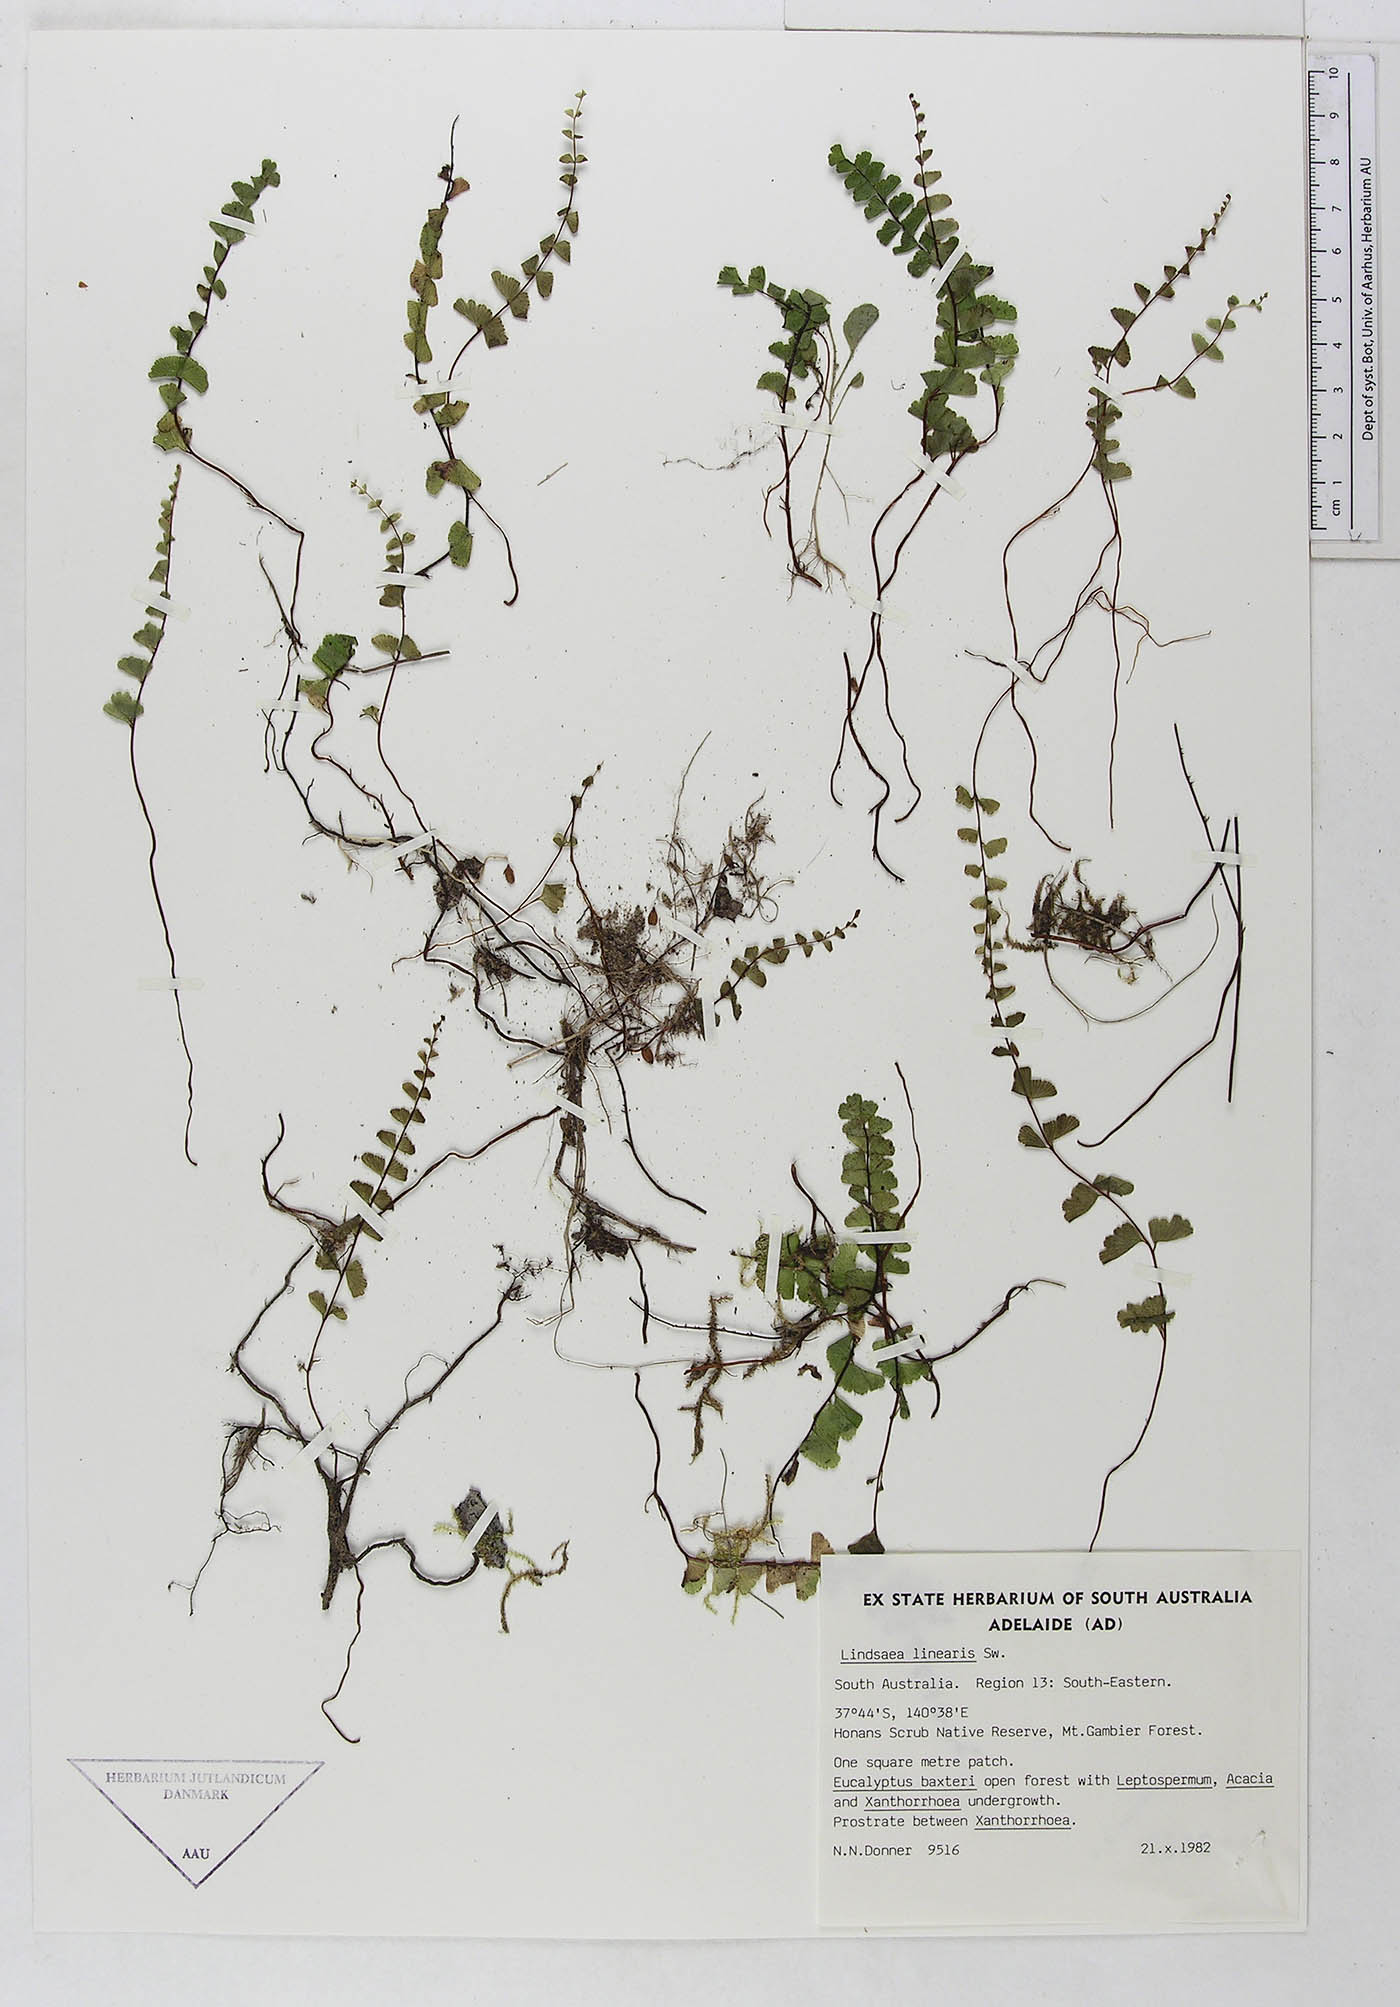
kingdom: Plantae
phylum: Tracheophyta
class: Polypodiopsida
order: Polypodiales
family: Lindsaeaceae
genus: Lindsaea
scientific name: Lindsaea linearis
